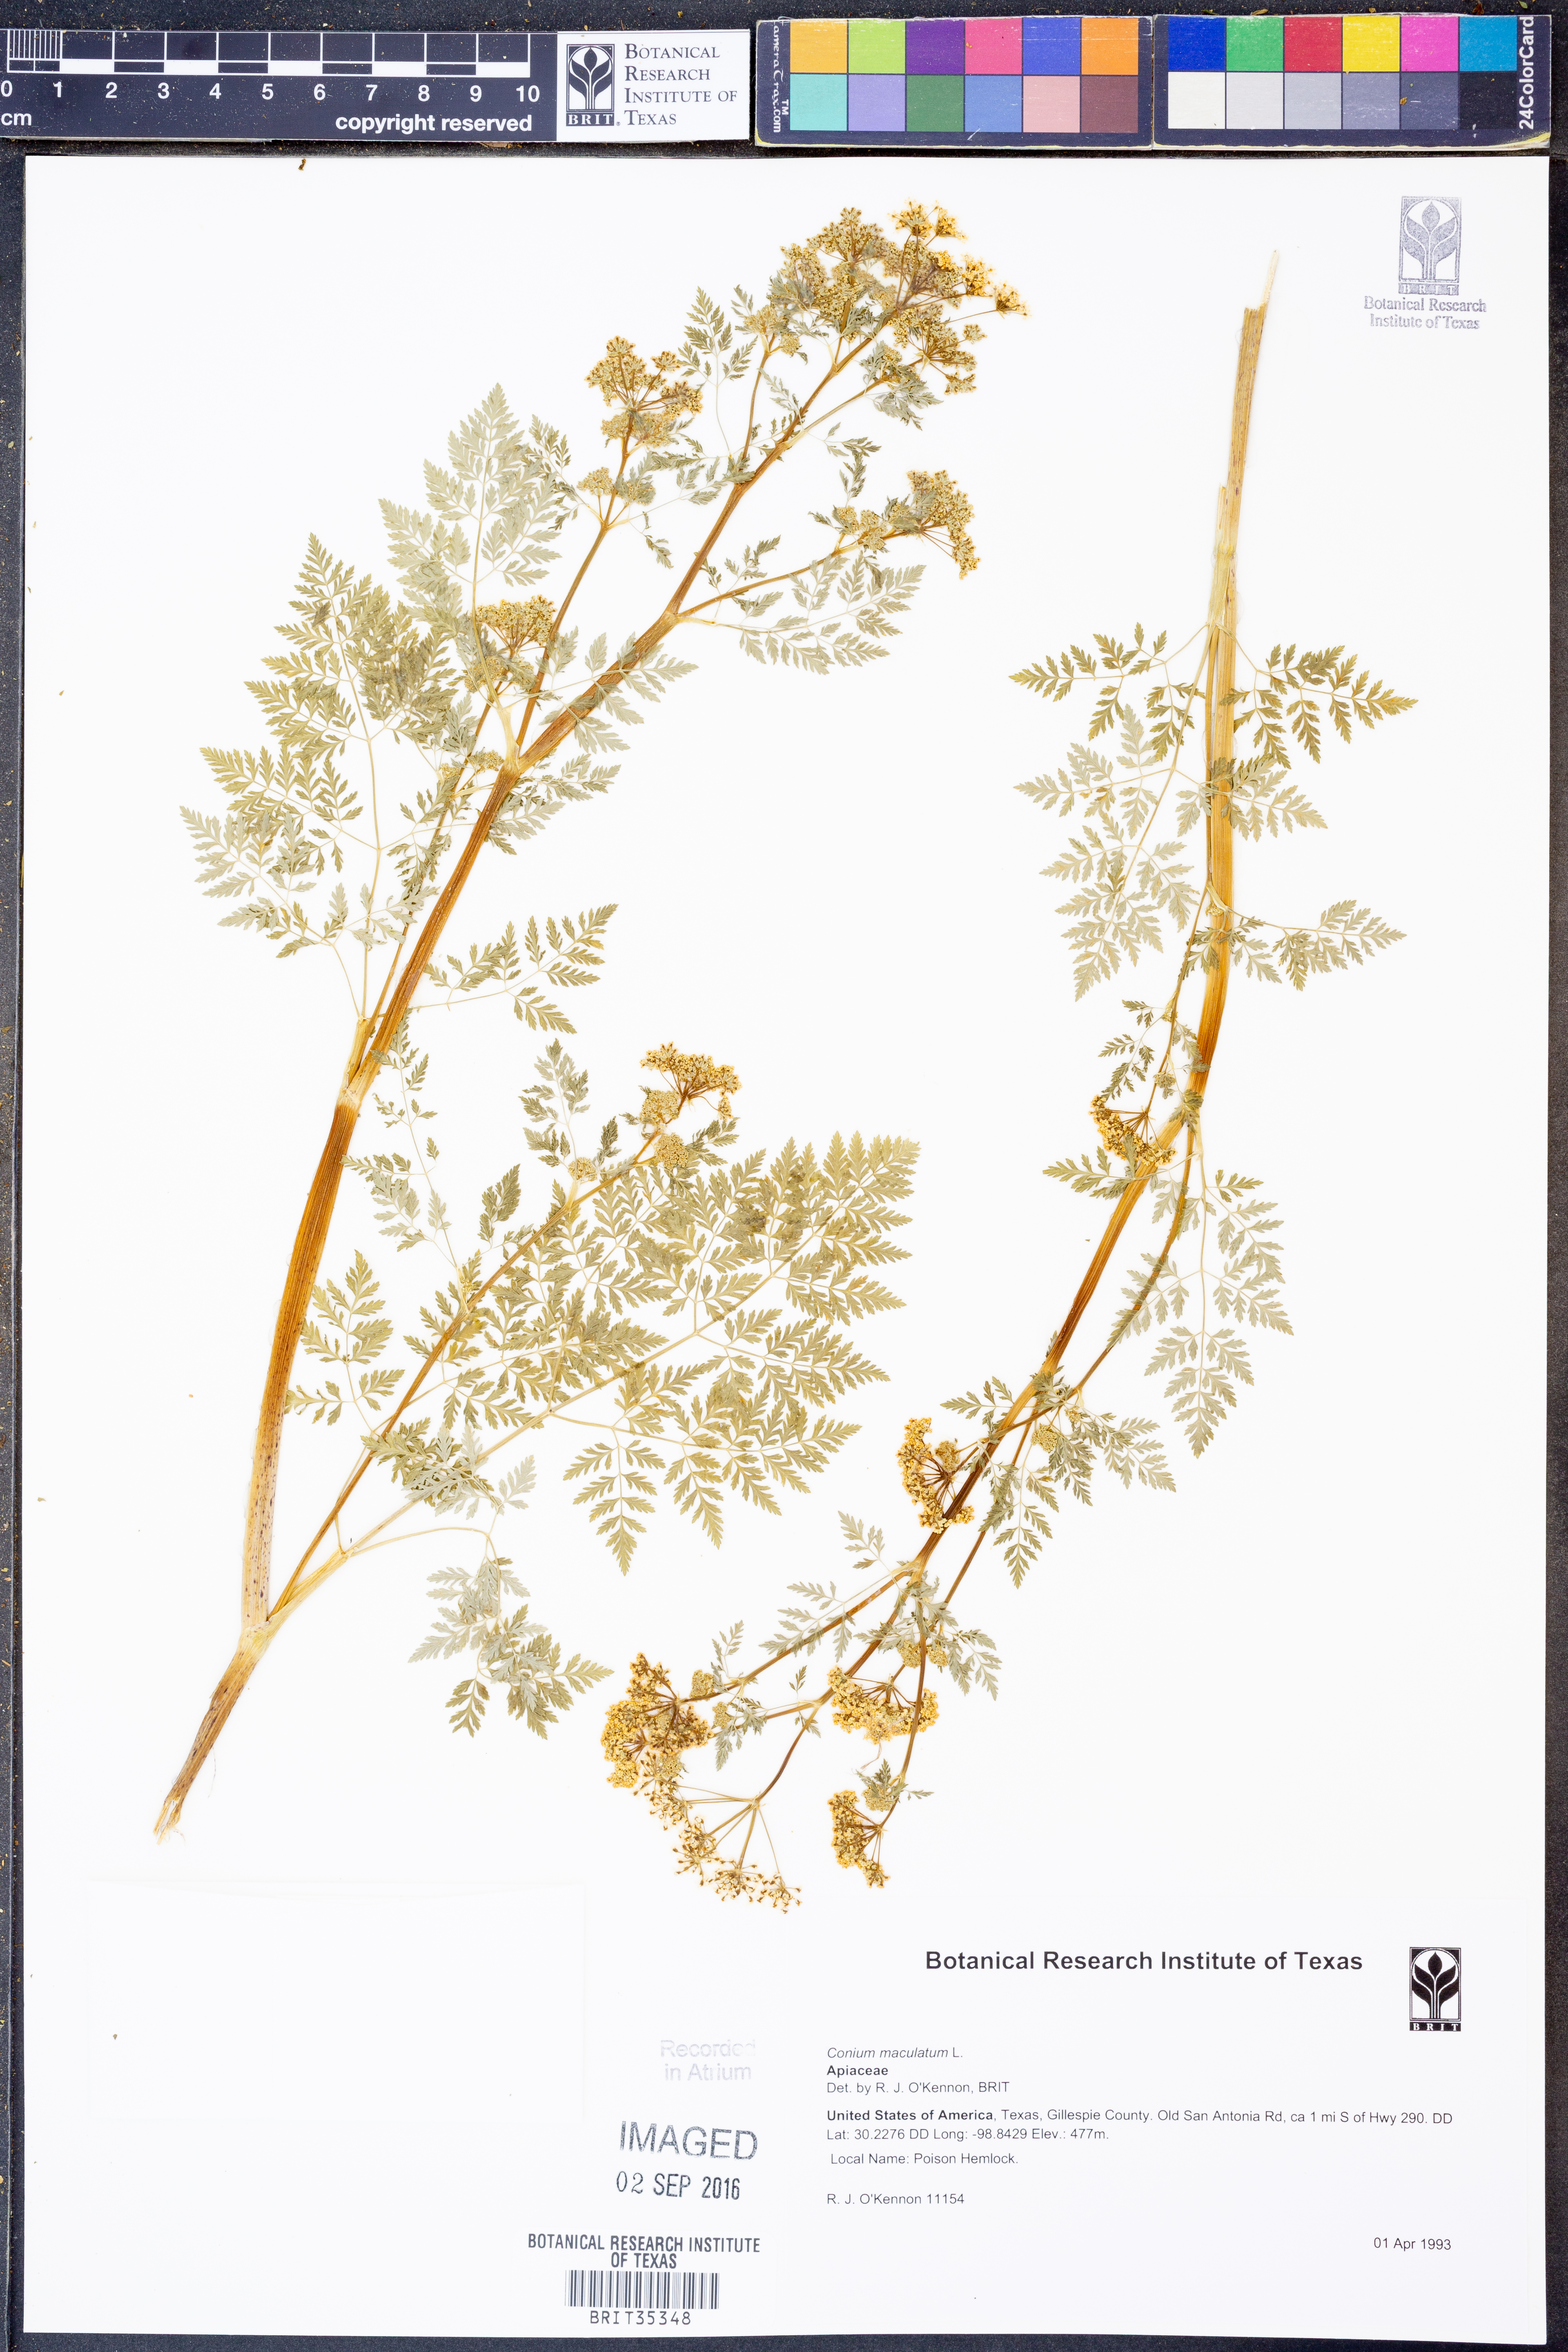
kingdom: Plantae
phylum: Tracheophyta
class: Magnoliopsida
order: Apiales
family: Apiaceae
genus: Conium
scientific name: Conium maculatum
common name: Hemlock
